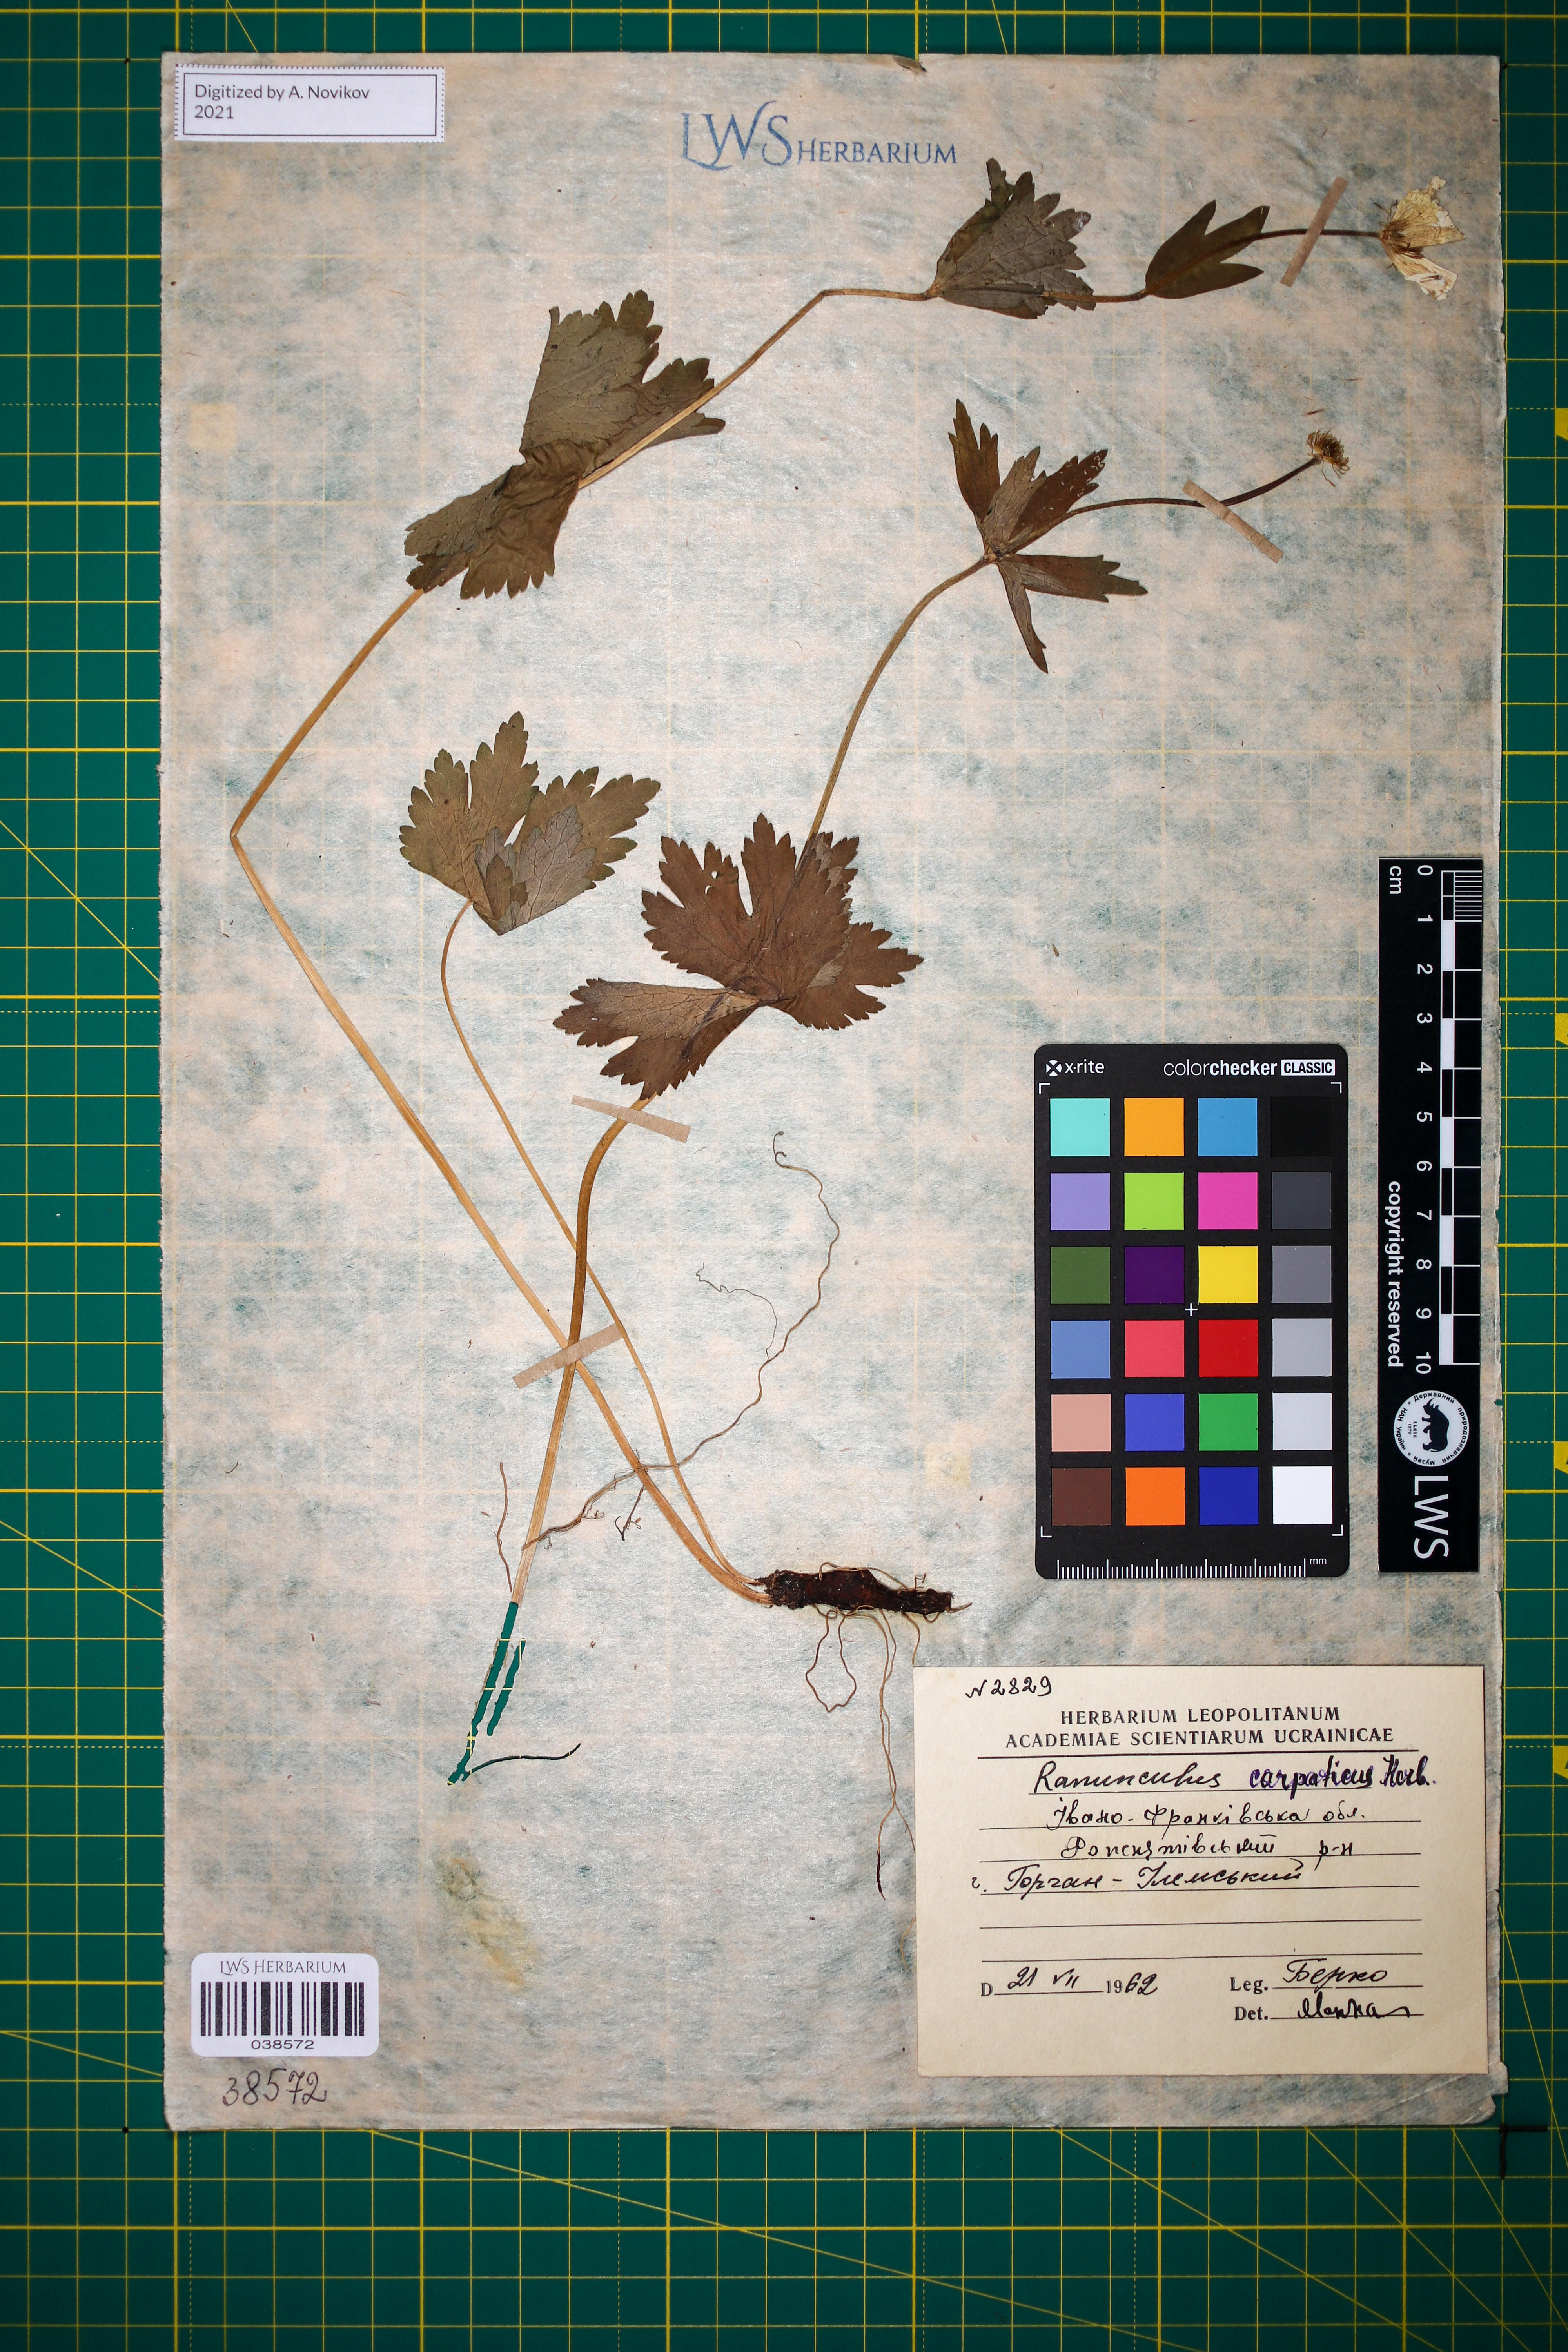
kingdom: Plantae
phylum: Tracheophyta
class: Magnoliopsida
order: Ranunculales
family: Ranunculaceae
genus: Ranunculus
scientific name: Ranunculus carpaticus
